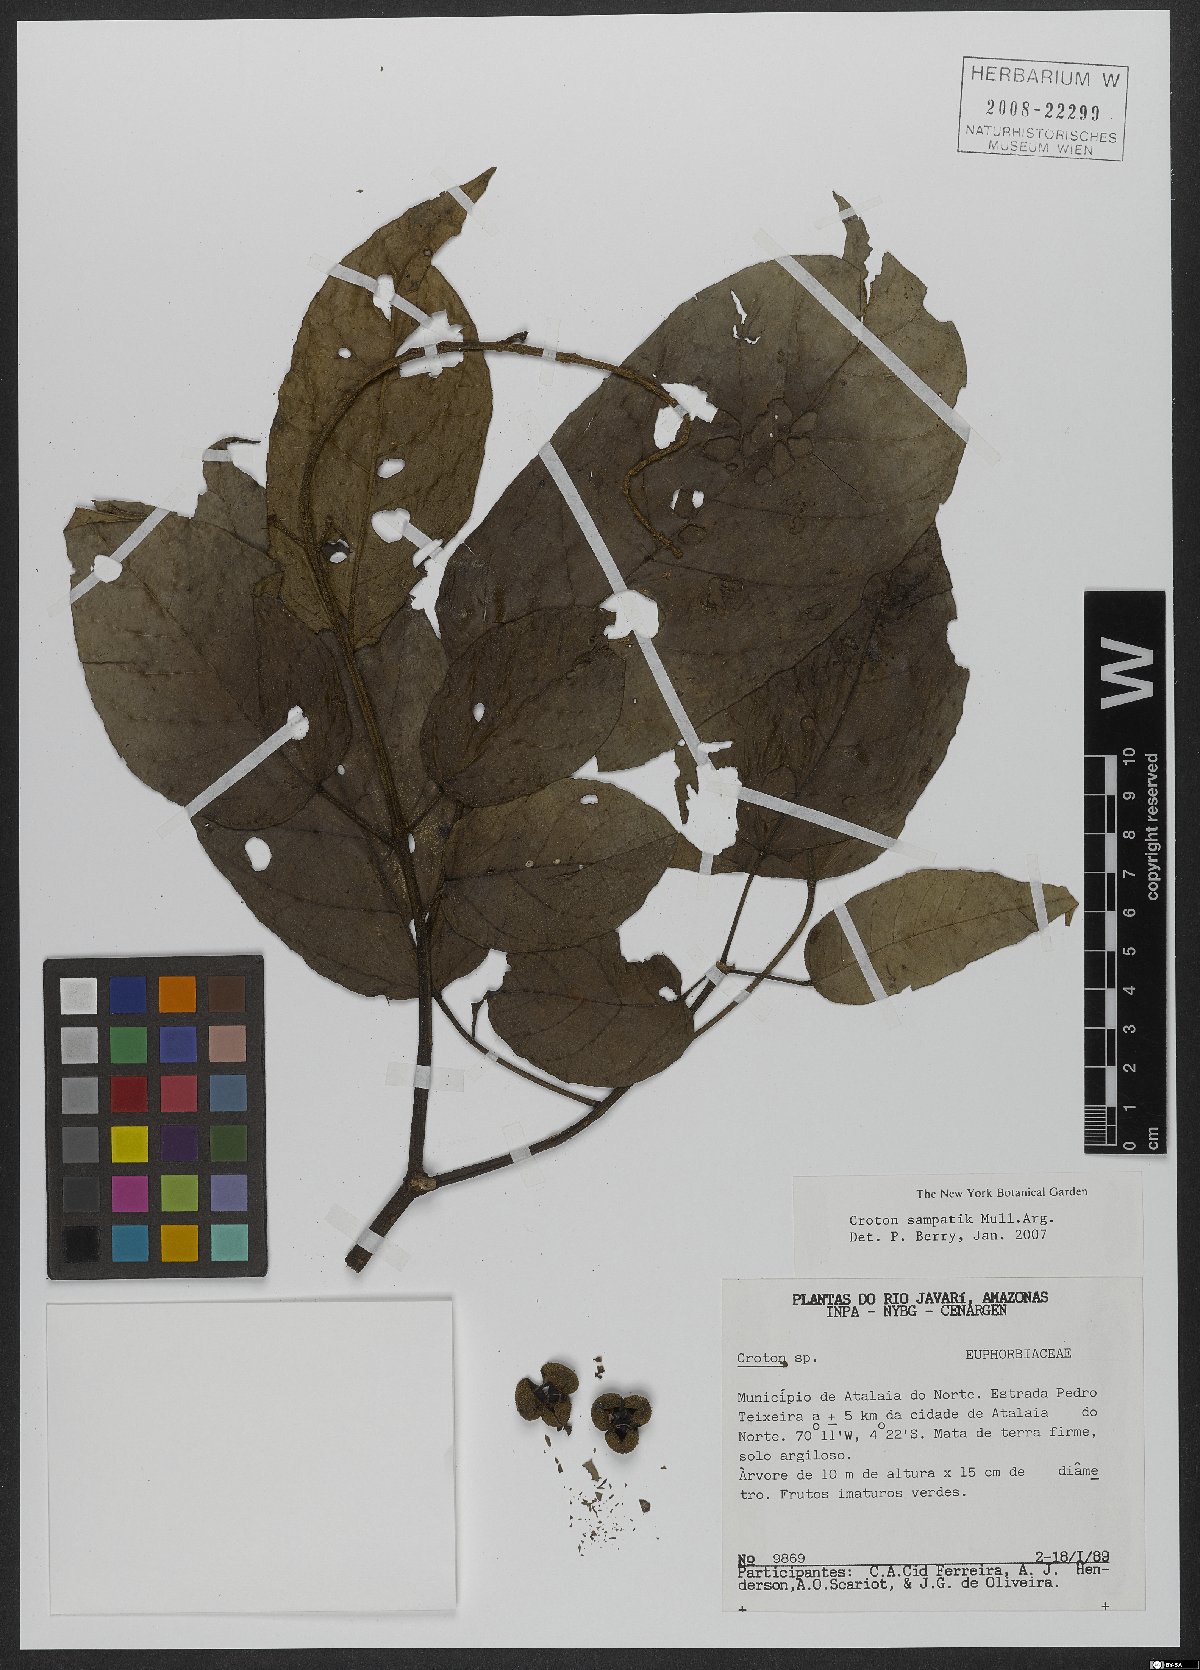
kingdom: Plantae
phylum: Tracheophyta
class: Magnoliopsida
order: Malpighiales
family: Euphorbiaceae
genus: Croton
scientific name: Croton sampatik
